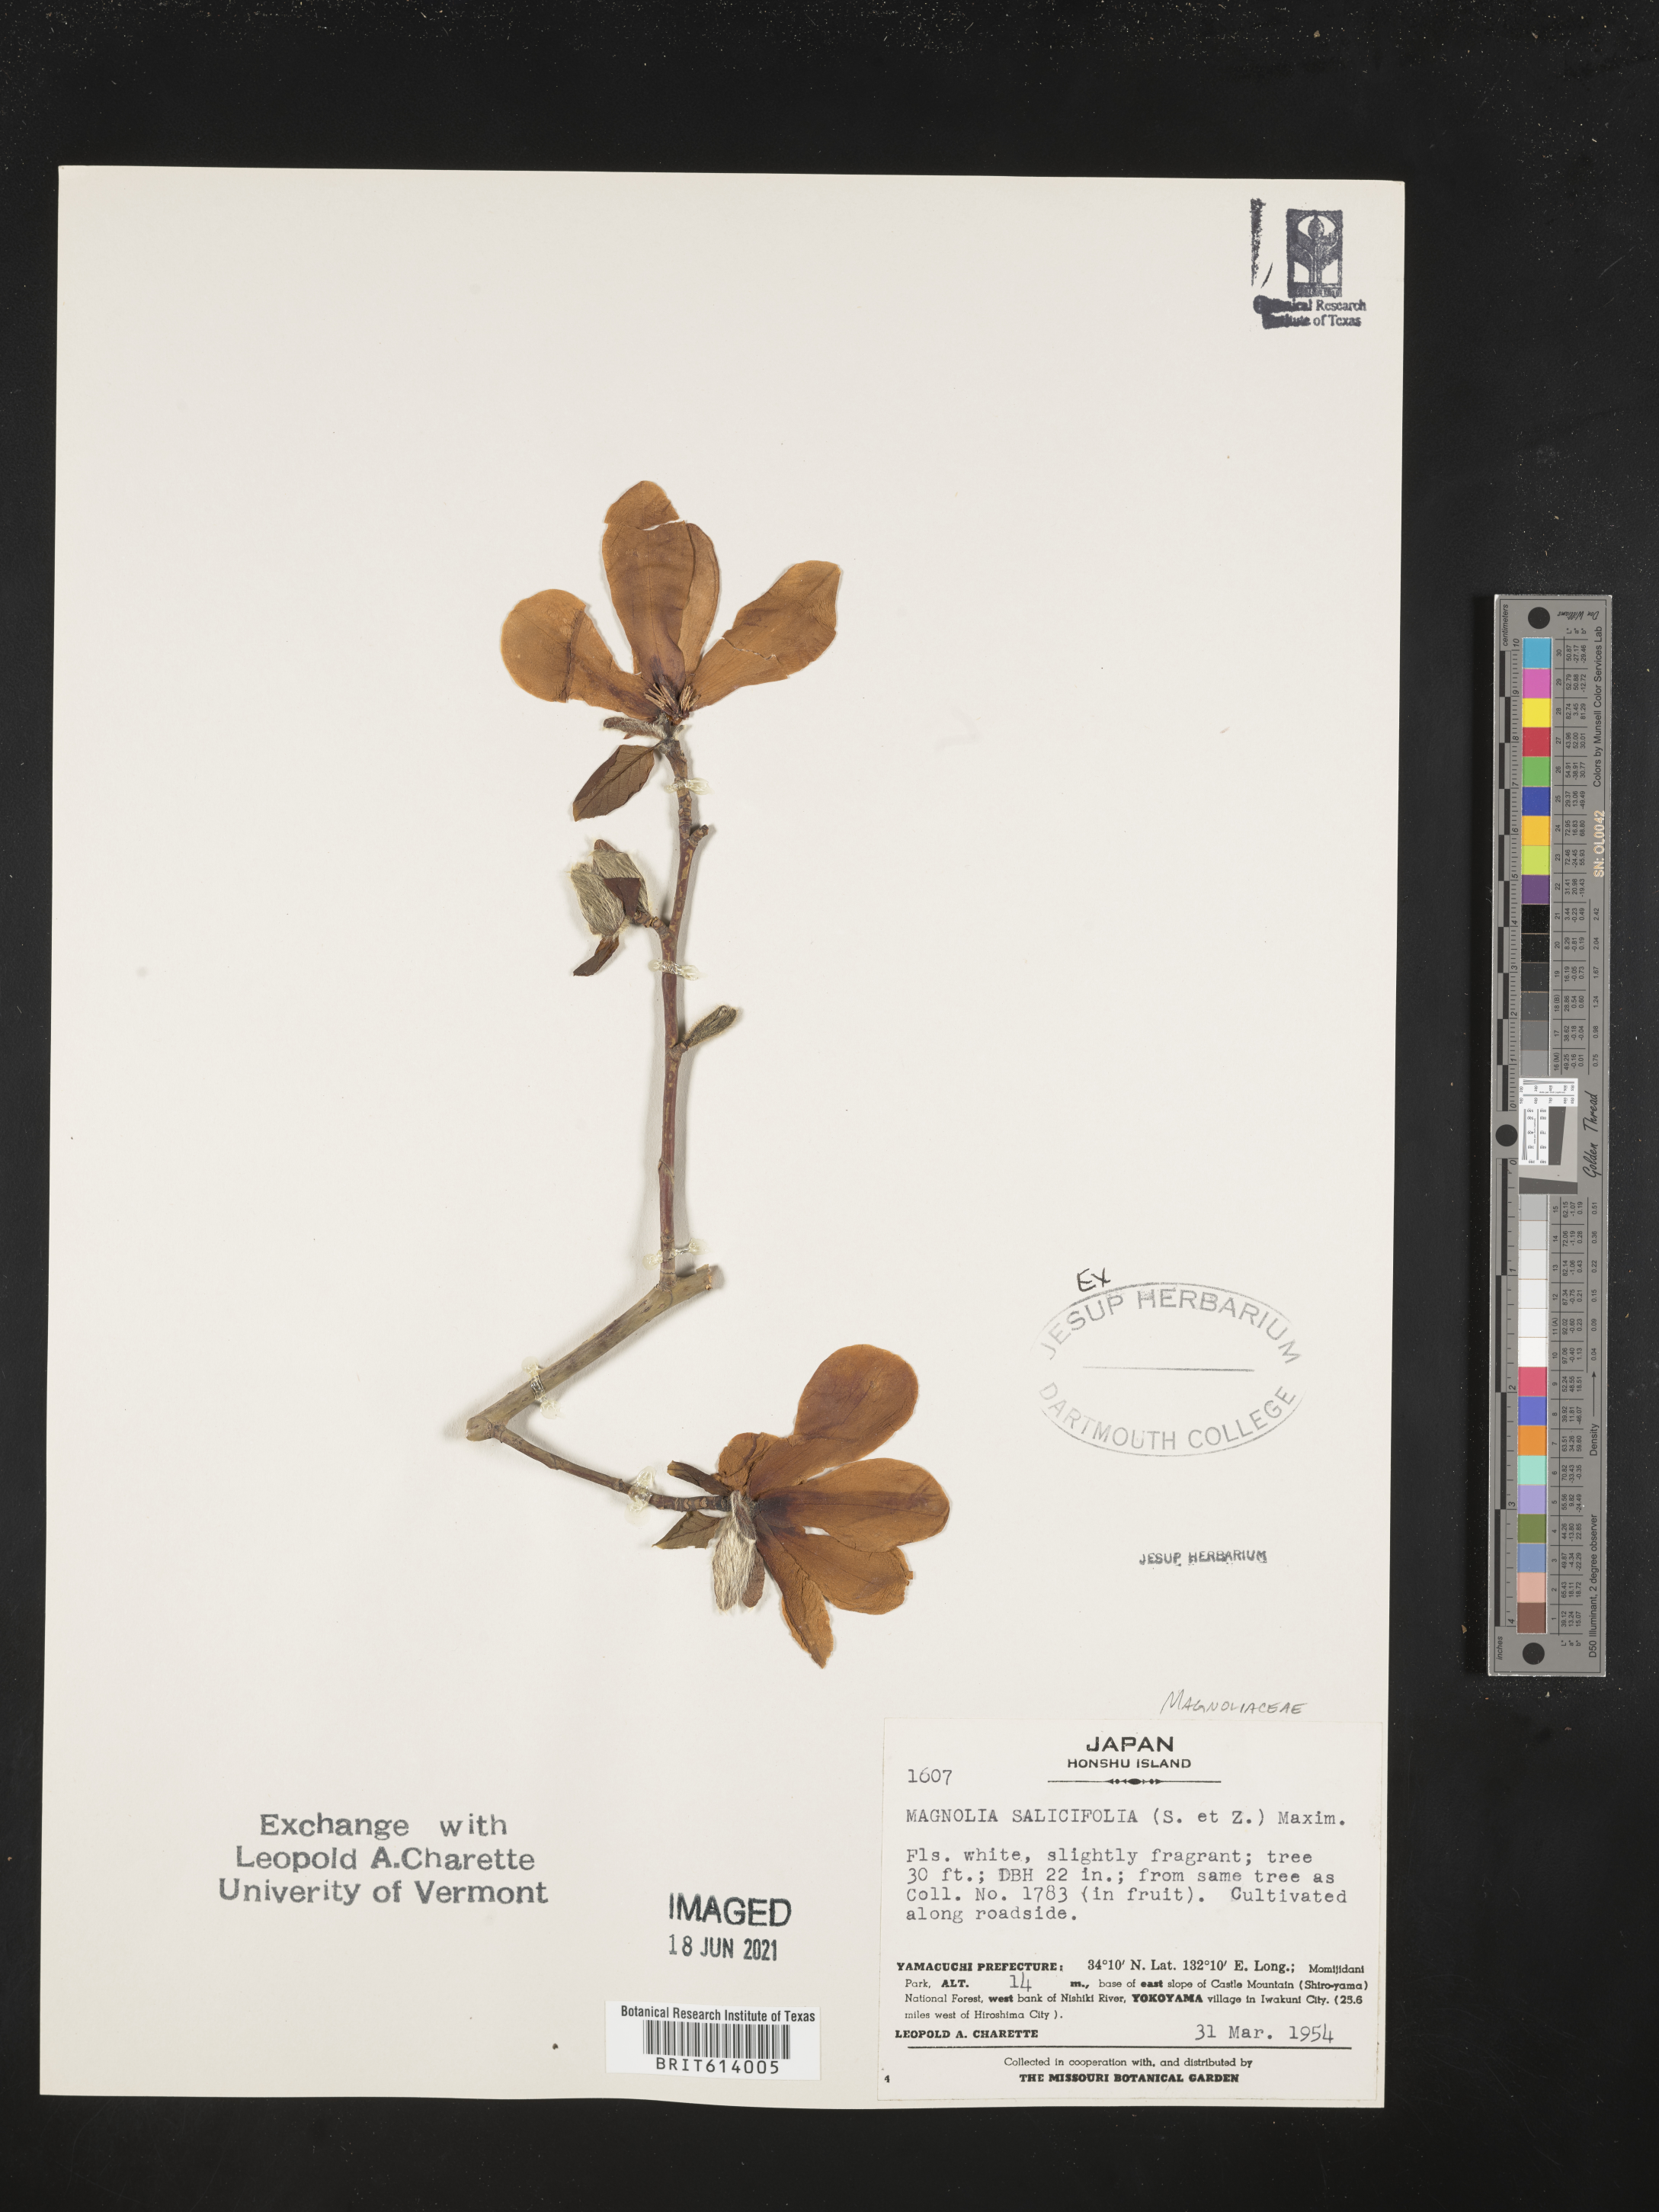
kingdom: Plantae
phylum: Tracheophyta
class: Magnoliopsida
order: Magnoliales
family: Magnoliaceae
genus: Magnolia
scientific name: Magnolia salicifolia
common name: Anise magnolia
